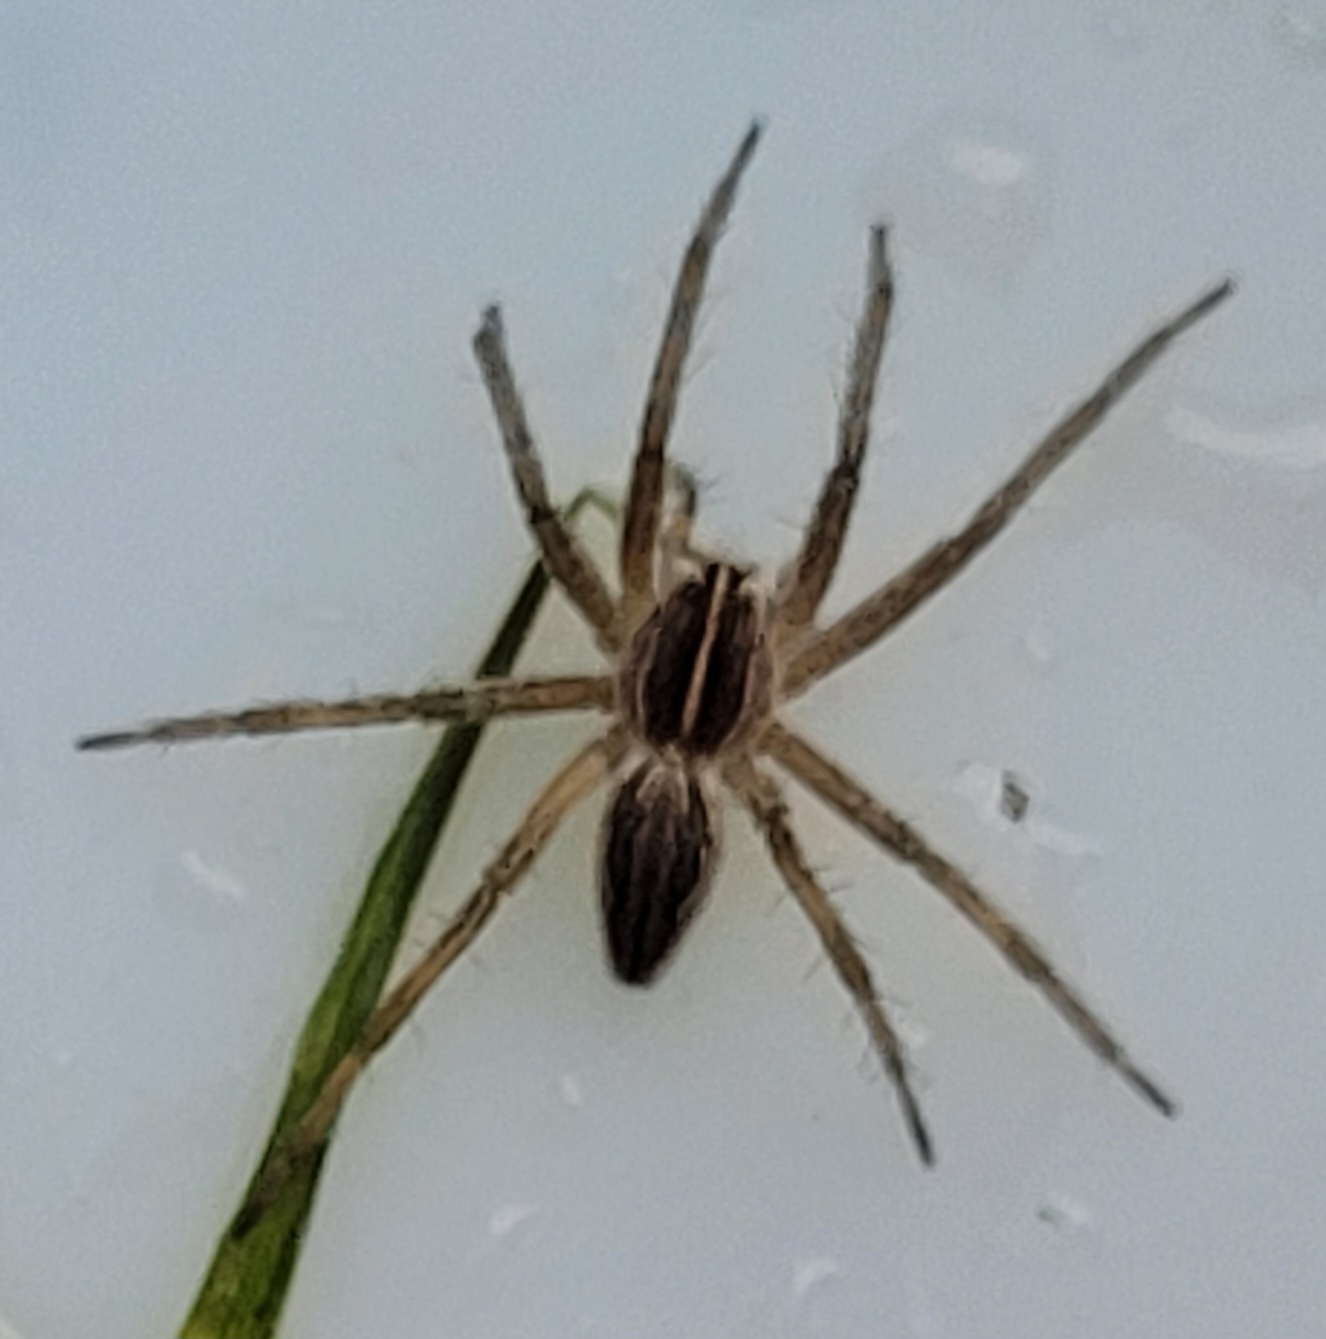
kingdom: Animalia
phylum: Arthropoda
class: Arachnida
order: Araneae
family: Pisauridae
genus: Pisaura
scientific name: Pisaura mirabilis
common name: Almindelig rovedderkop
